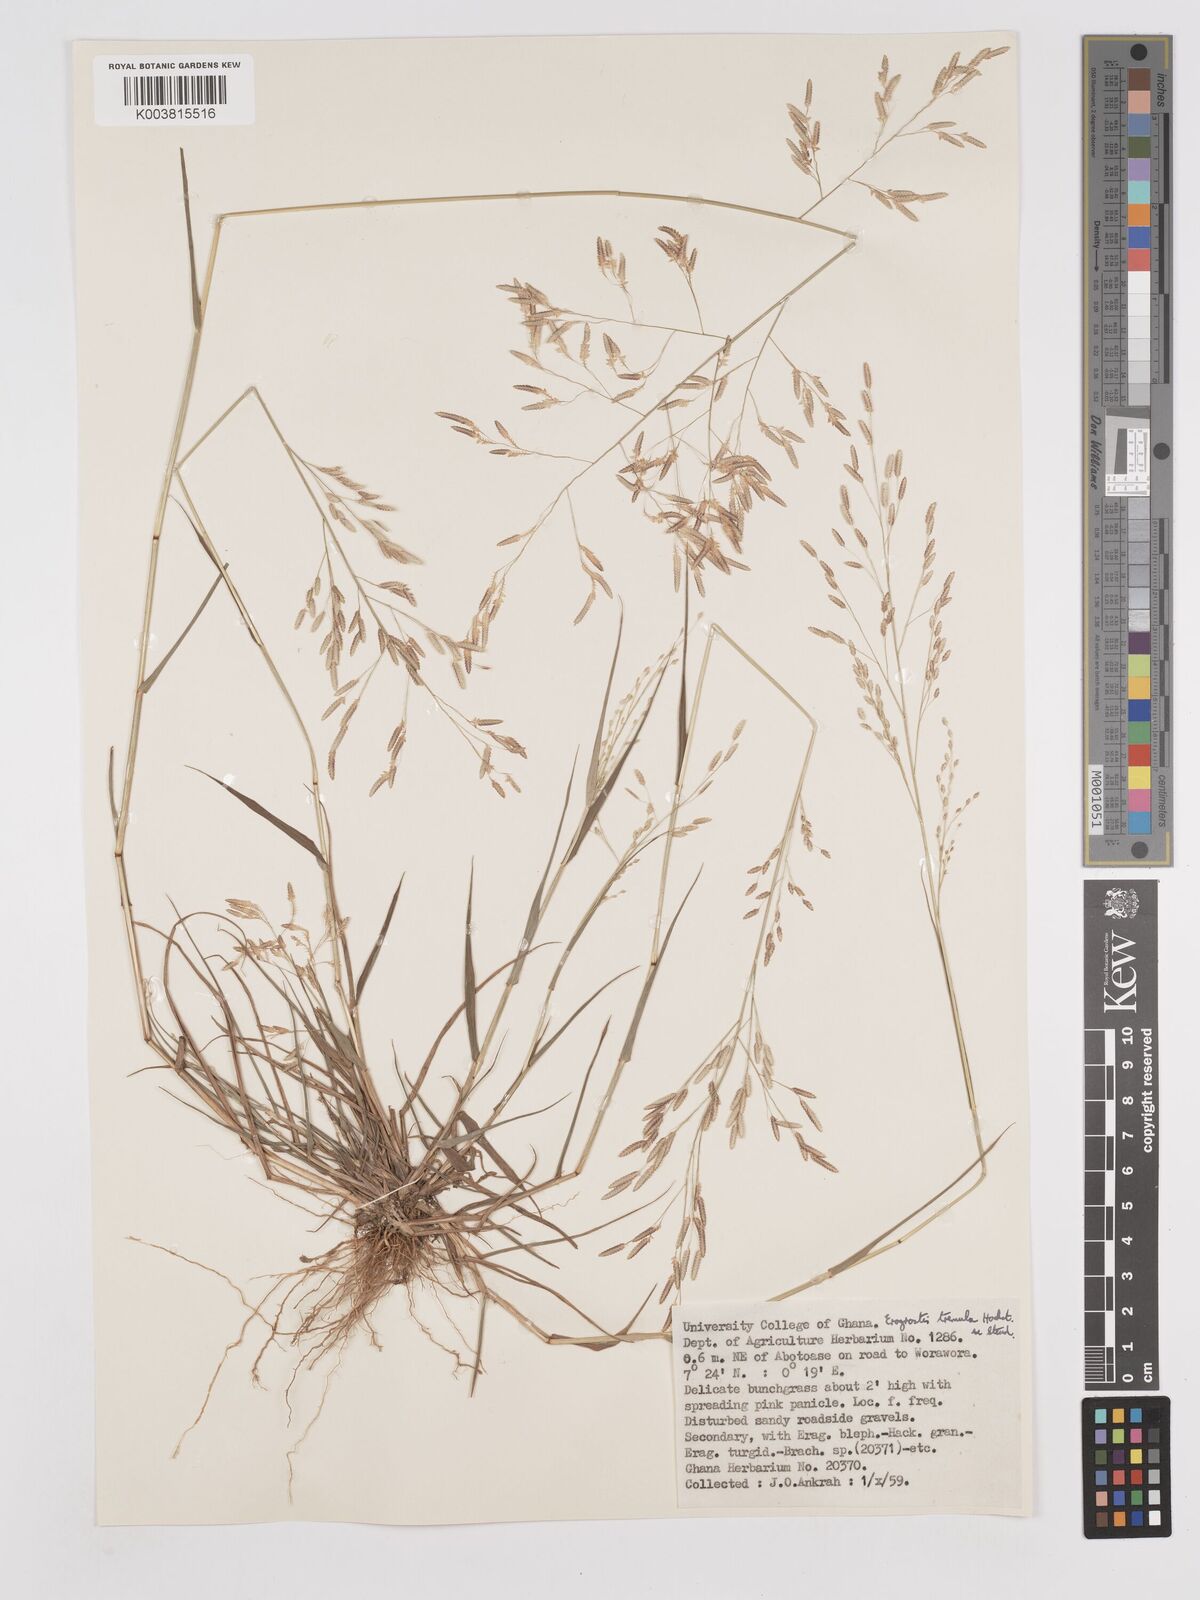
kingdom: Plantae
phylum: Tracheophyta
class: Liliopsida
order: Poales
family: Poaceae
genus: Eragrostis
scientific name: Eragrostis tremula
